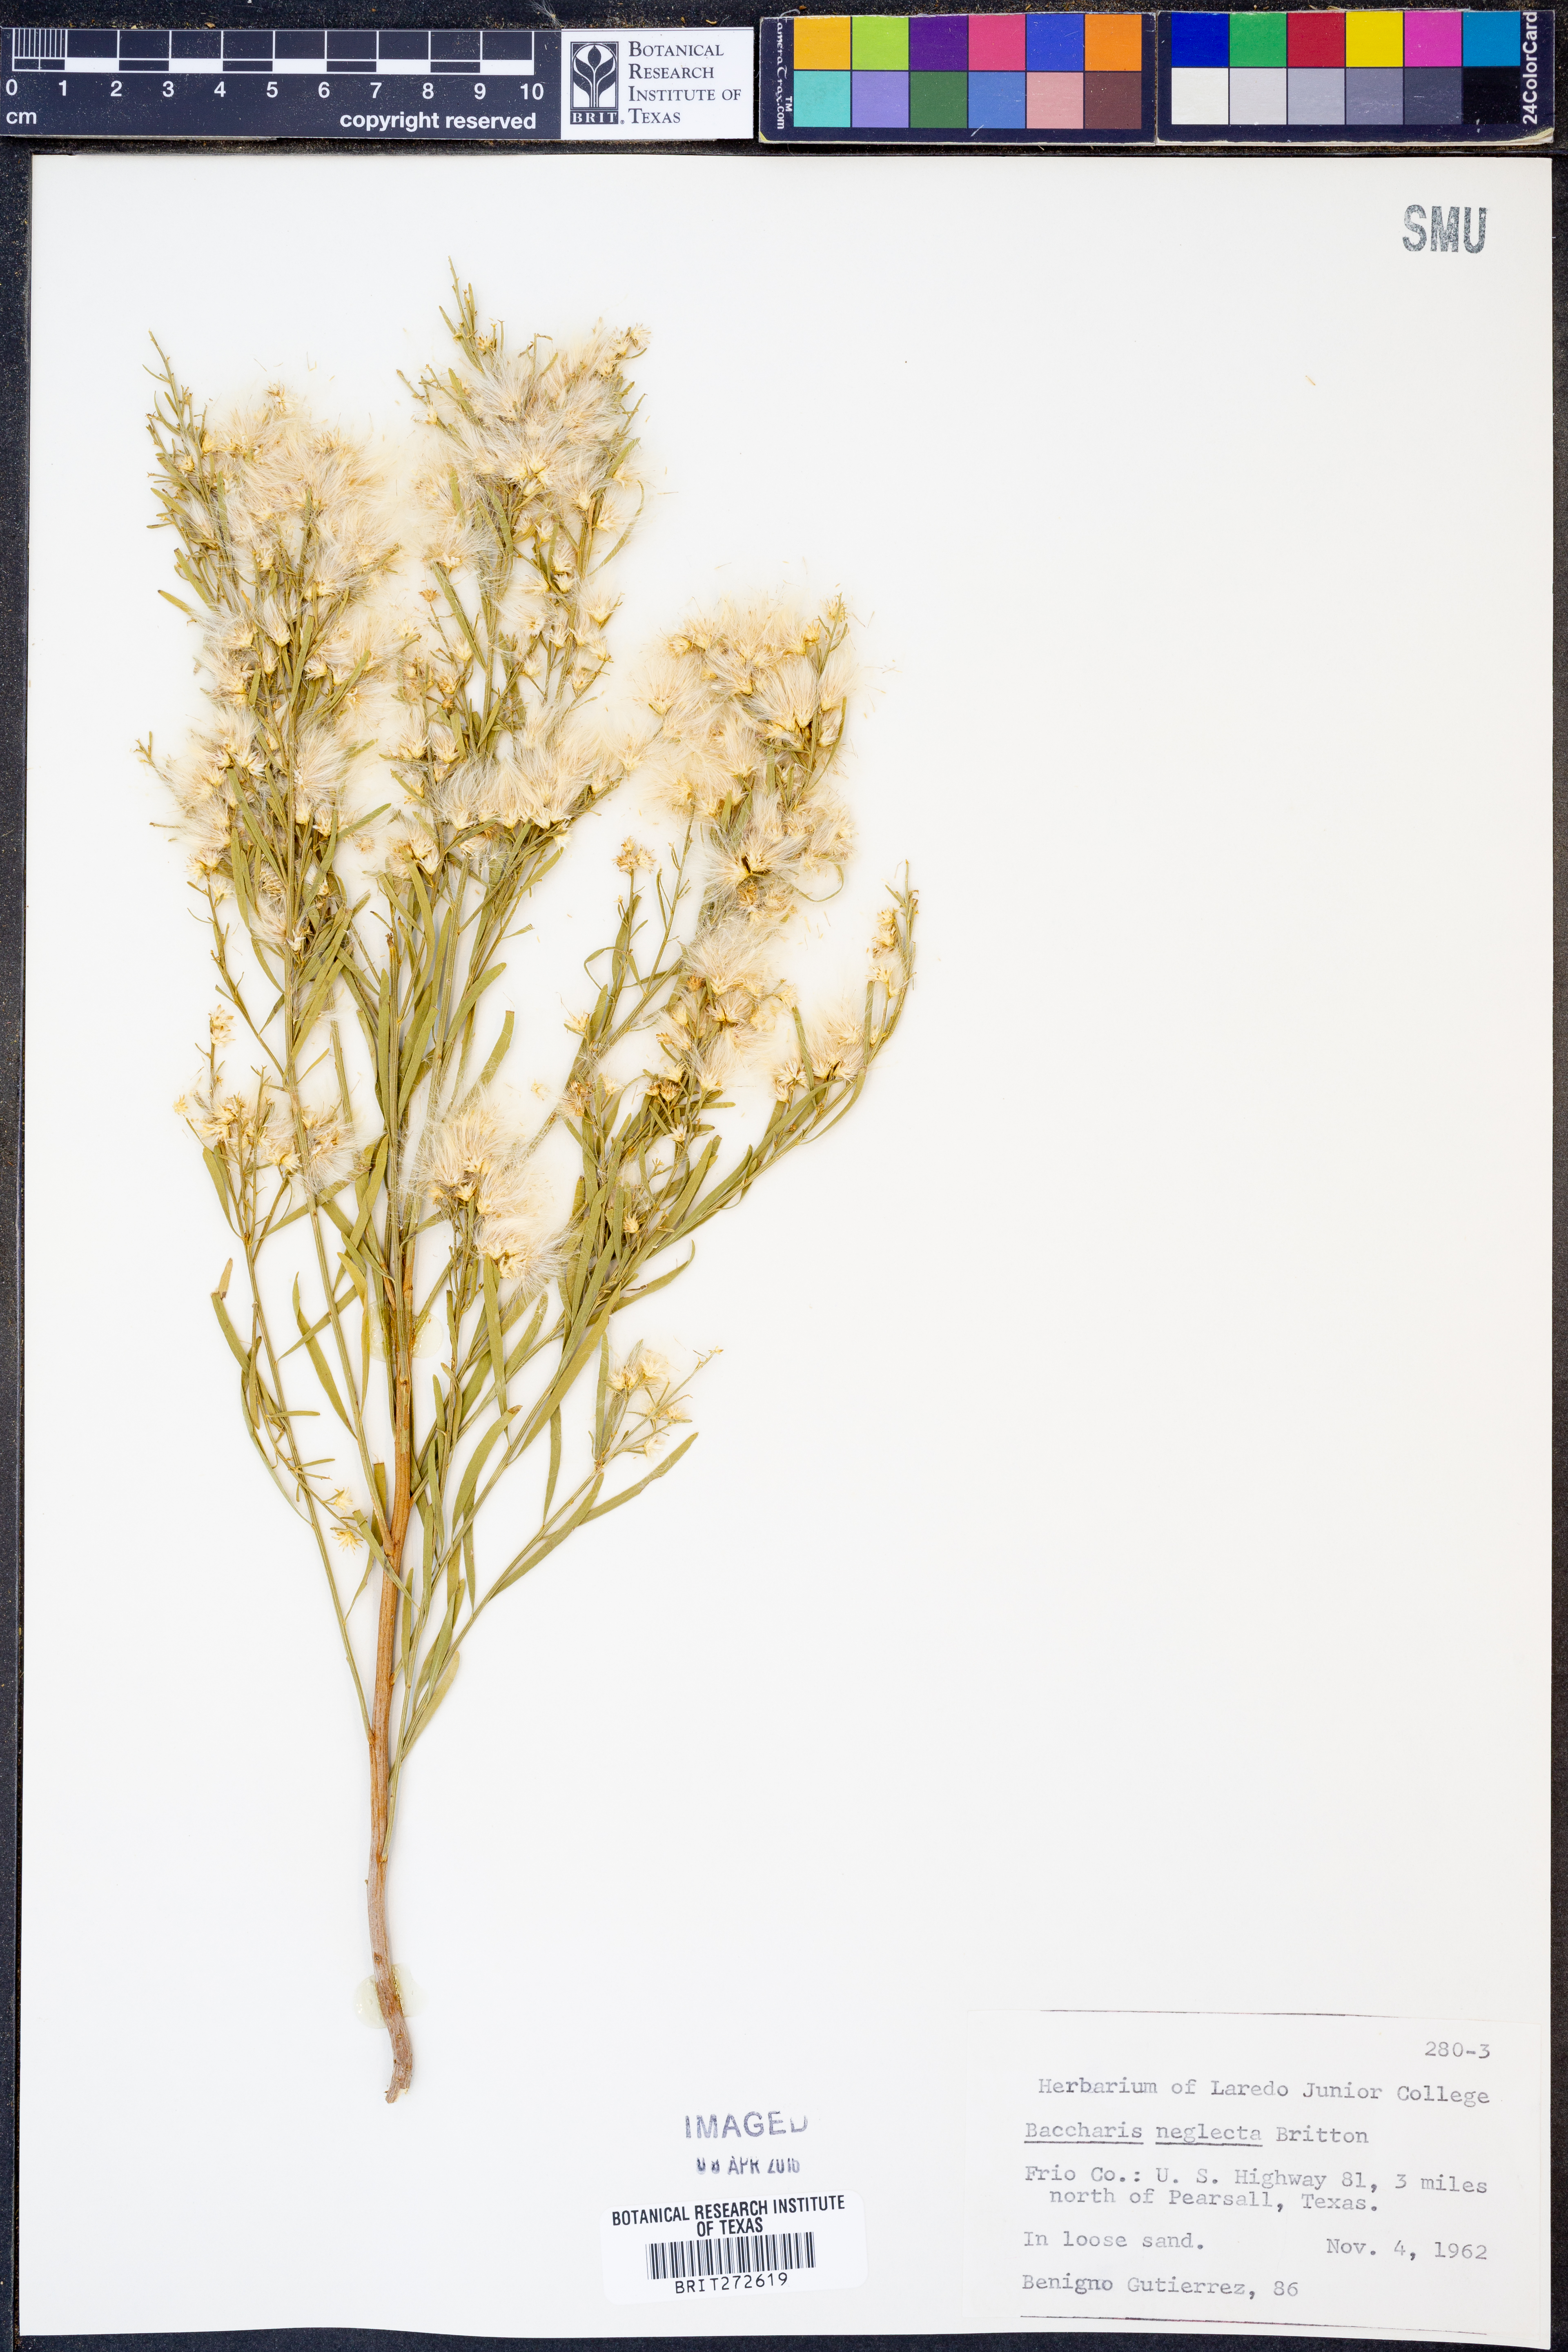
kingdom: Plantae
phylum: Tracheophyta
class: Magnoliopsida
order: Asterales
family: Asteraceae
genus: Baccharis
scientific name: Baccharis neglecta
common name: Roosevelt-weed
